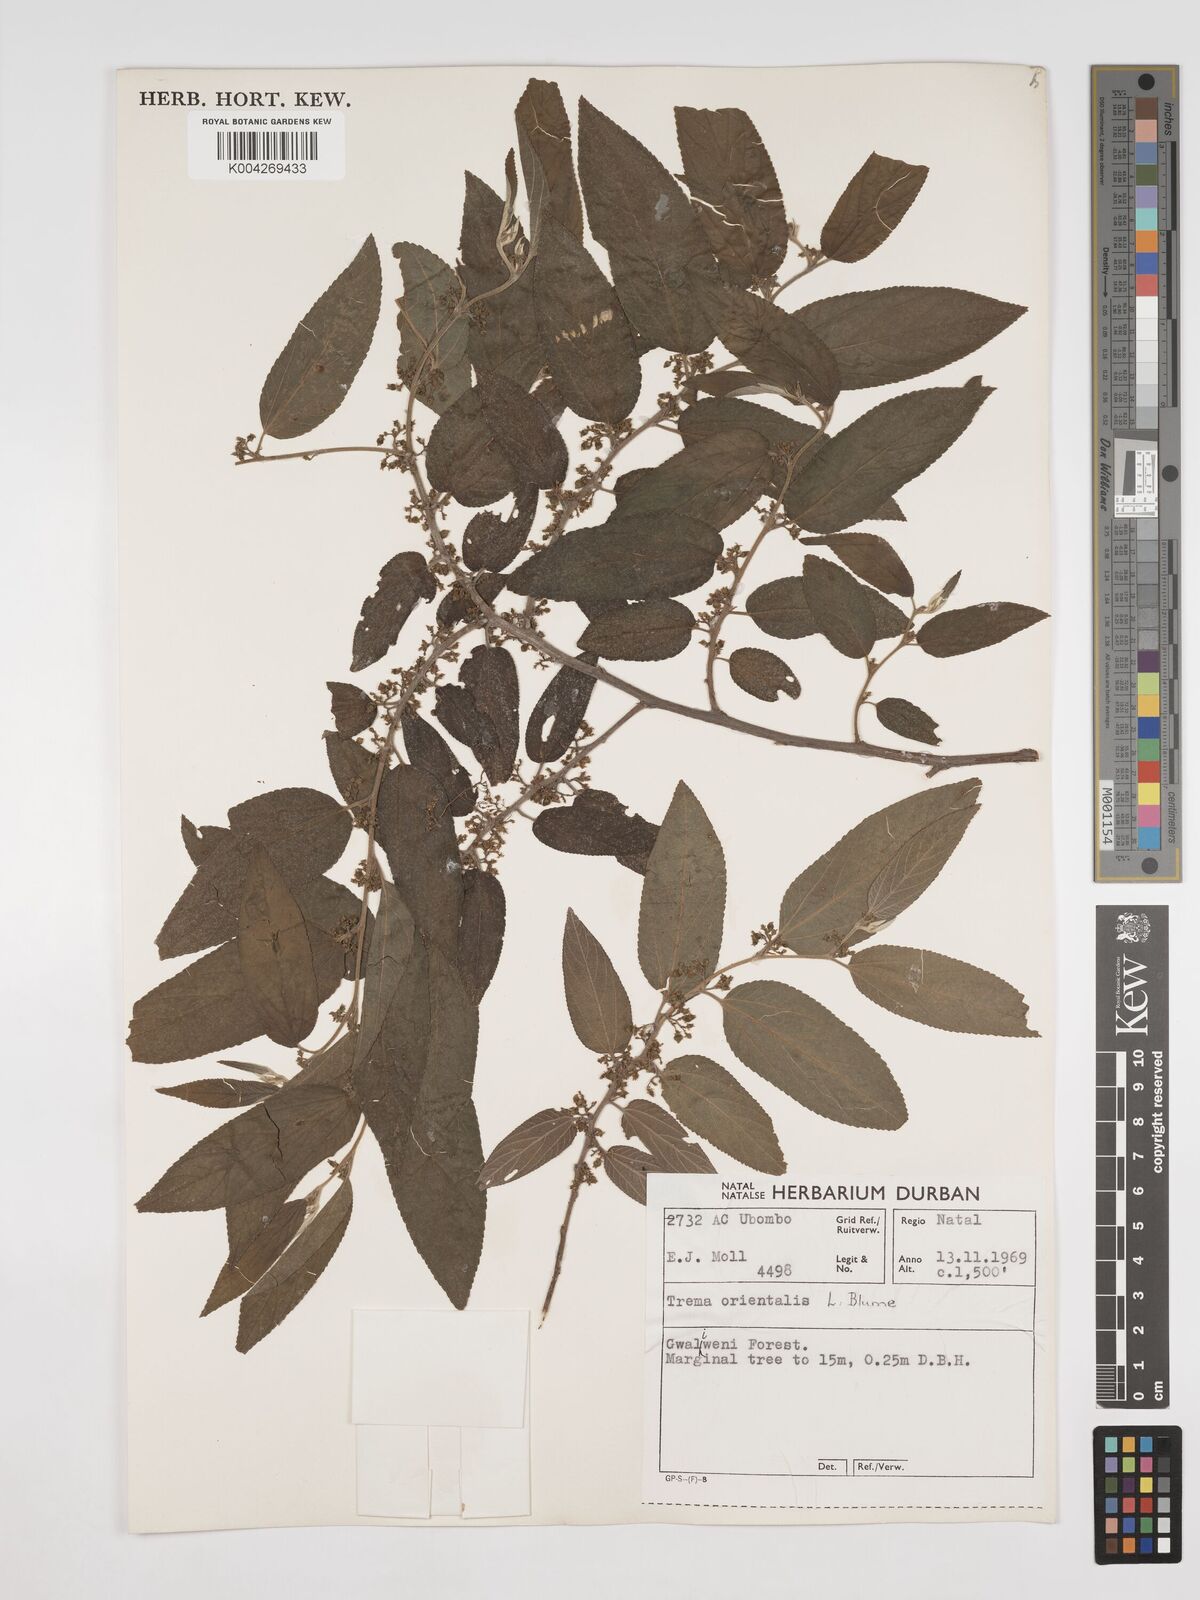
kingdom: Plantae
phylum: Tracheophyta
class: Magnoliopsida
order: Rosales
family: Cannabaceae
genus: Trema
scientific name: Trema orientale
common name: Indian charcoal tree
